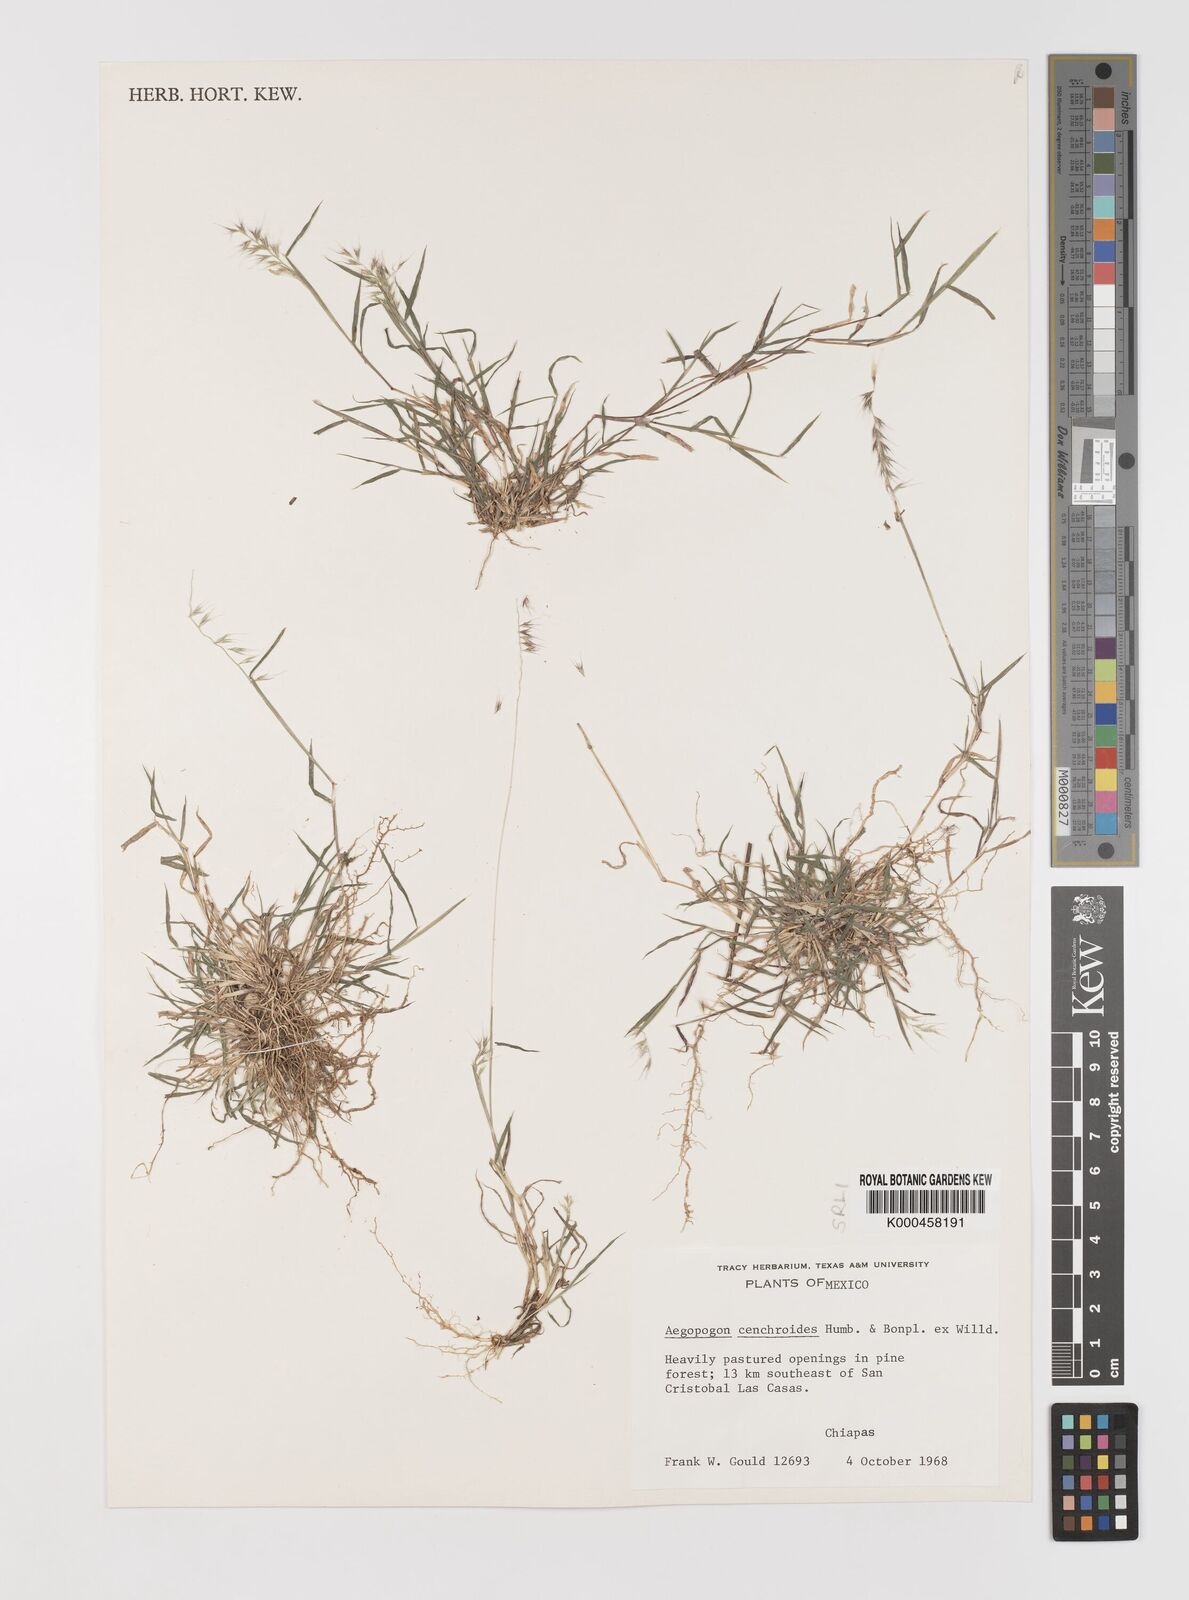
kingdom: Plantae
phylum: Tracheophyta
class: Liliopsida
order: Poales
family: Poaceae
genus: Muhlenbergia
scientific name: Muhlenbergia
